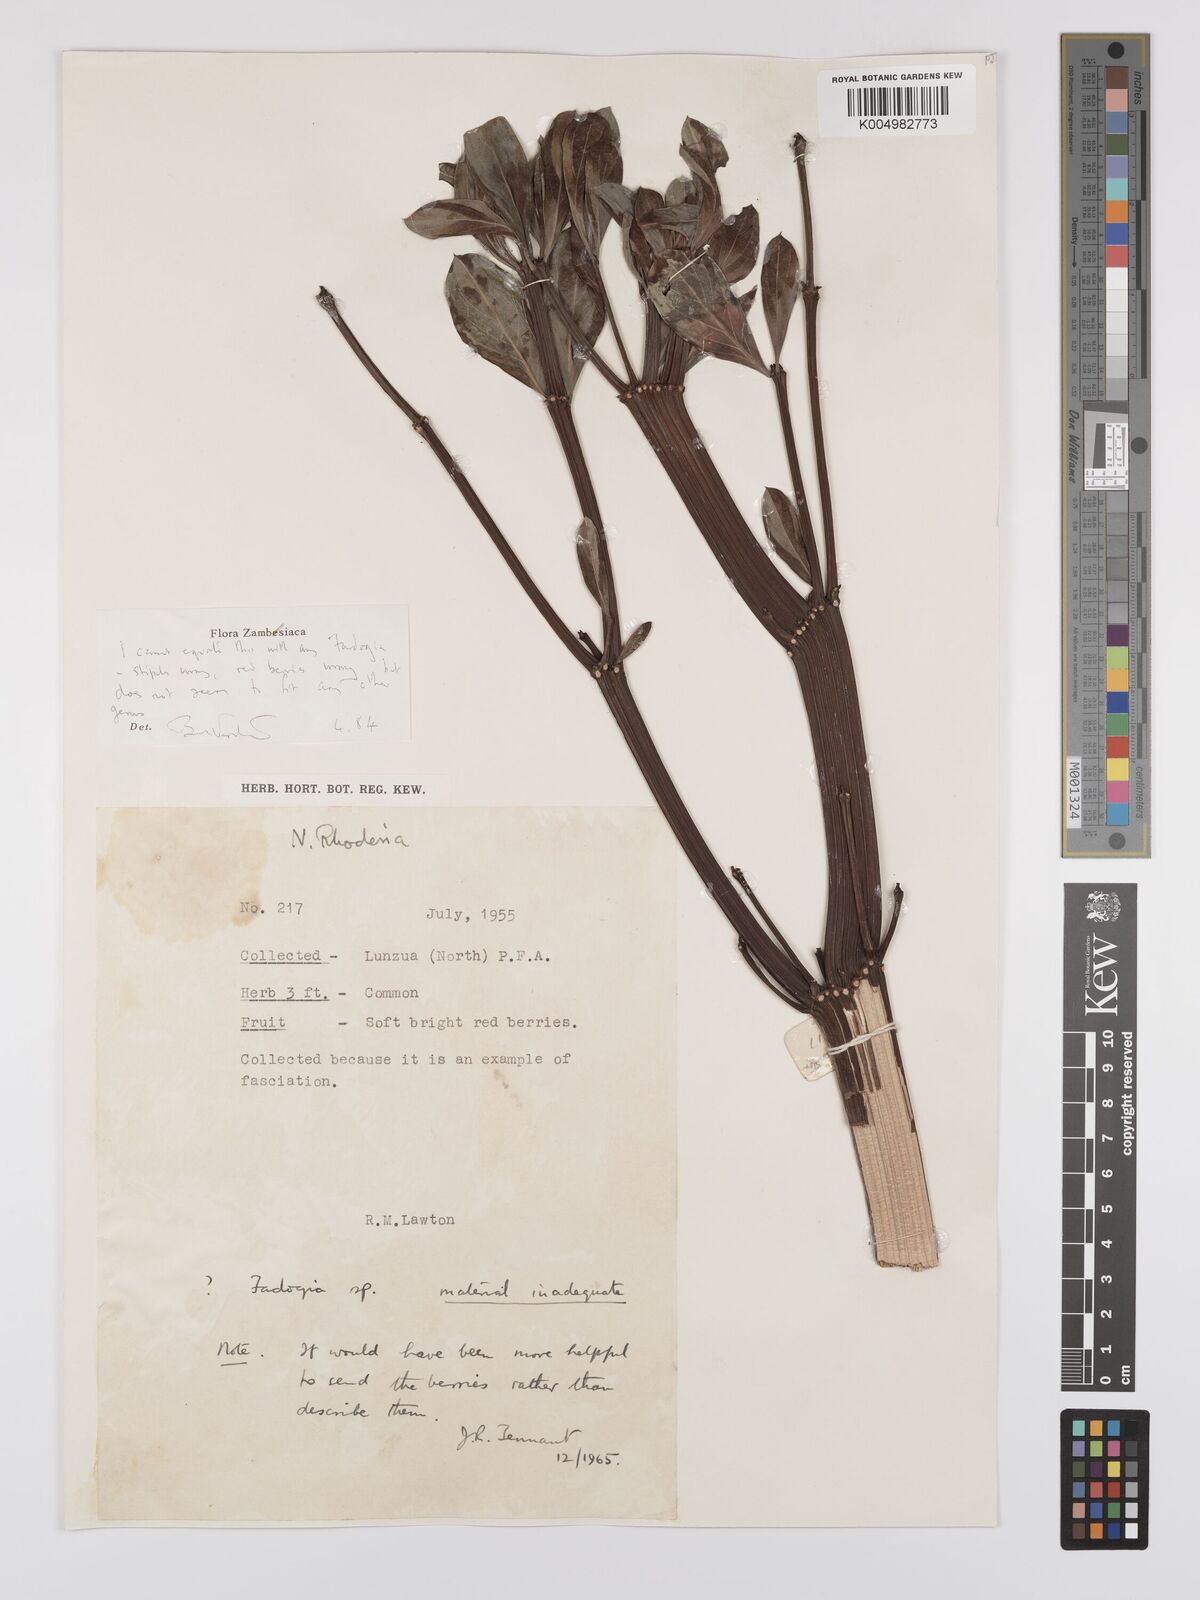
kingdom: Plantae
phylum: Tracheophyta
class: Magnoliopsida
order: Gentianales
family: Rubiaceae
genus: Fadogia
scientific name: Fadogia
